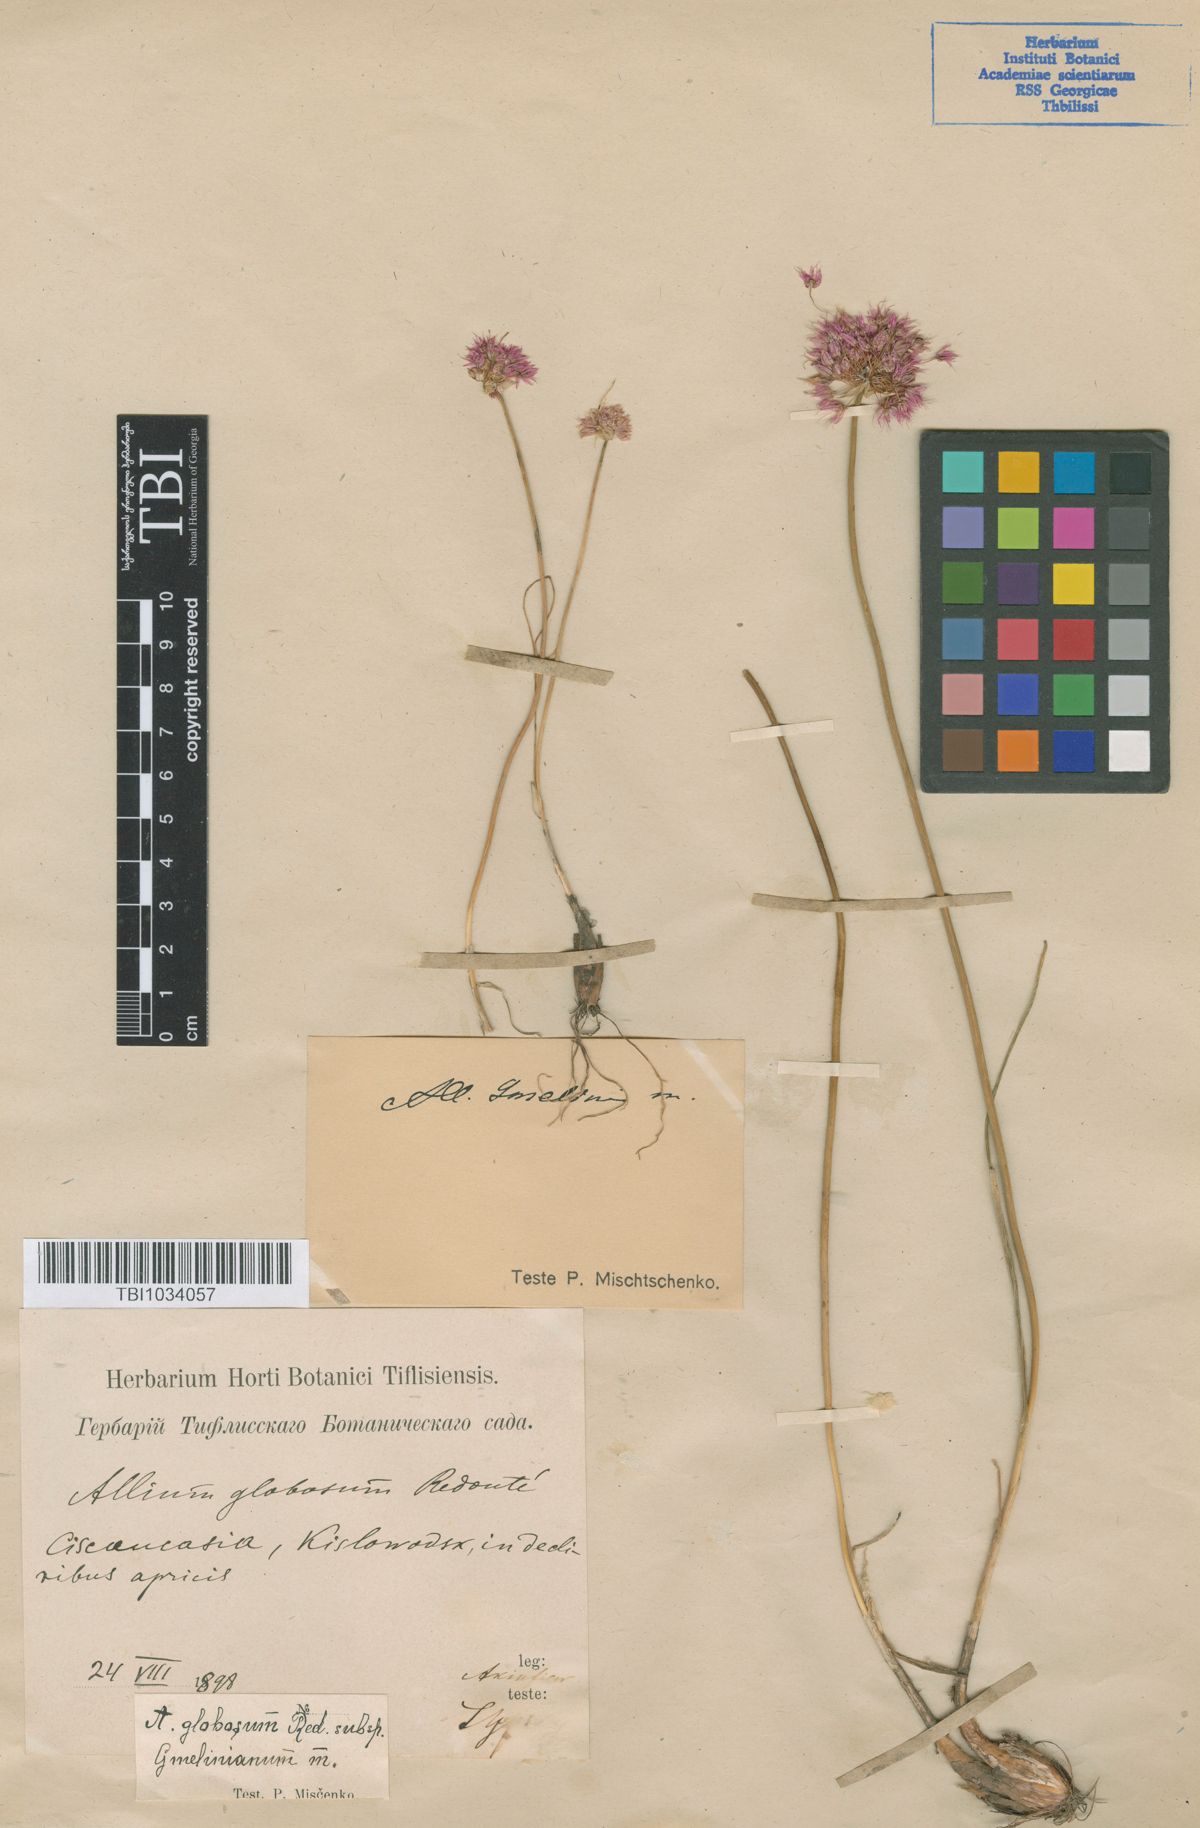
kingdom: Plantae
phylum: Tracheophyta
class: Liliopsida
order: Asparagales
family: Amaryllidaceae
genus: Allium
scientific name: Allium saxatile
